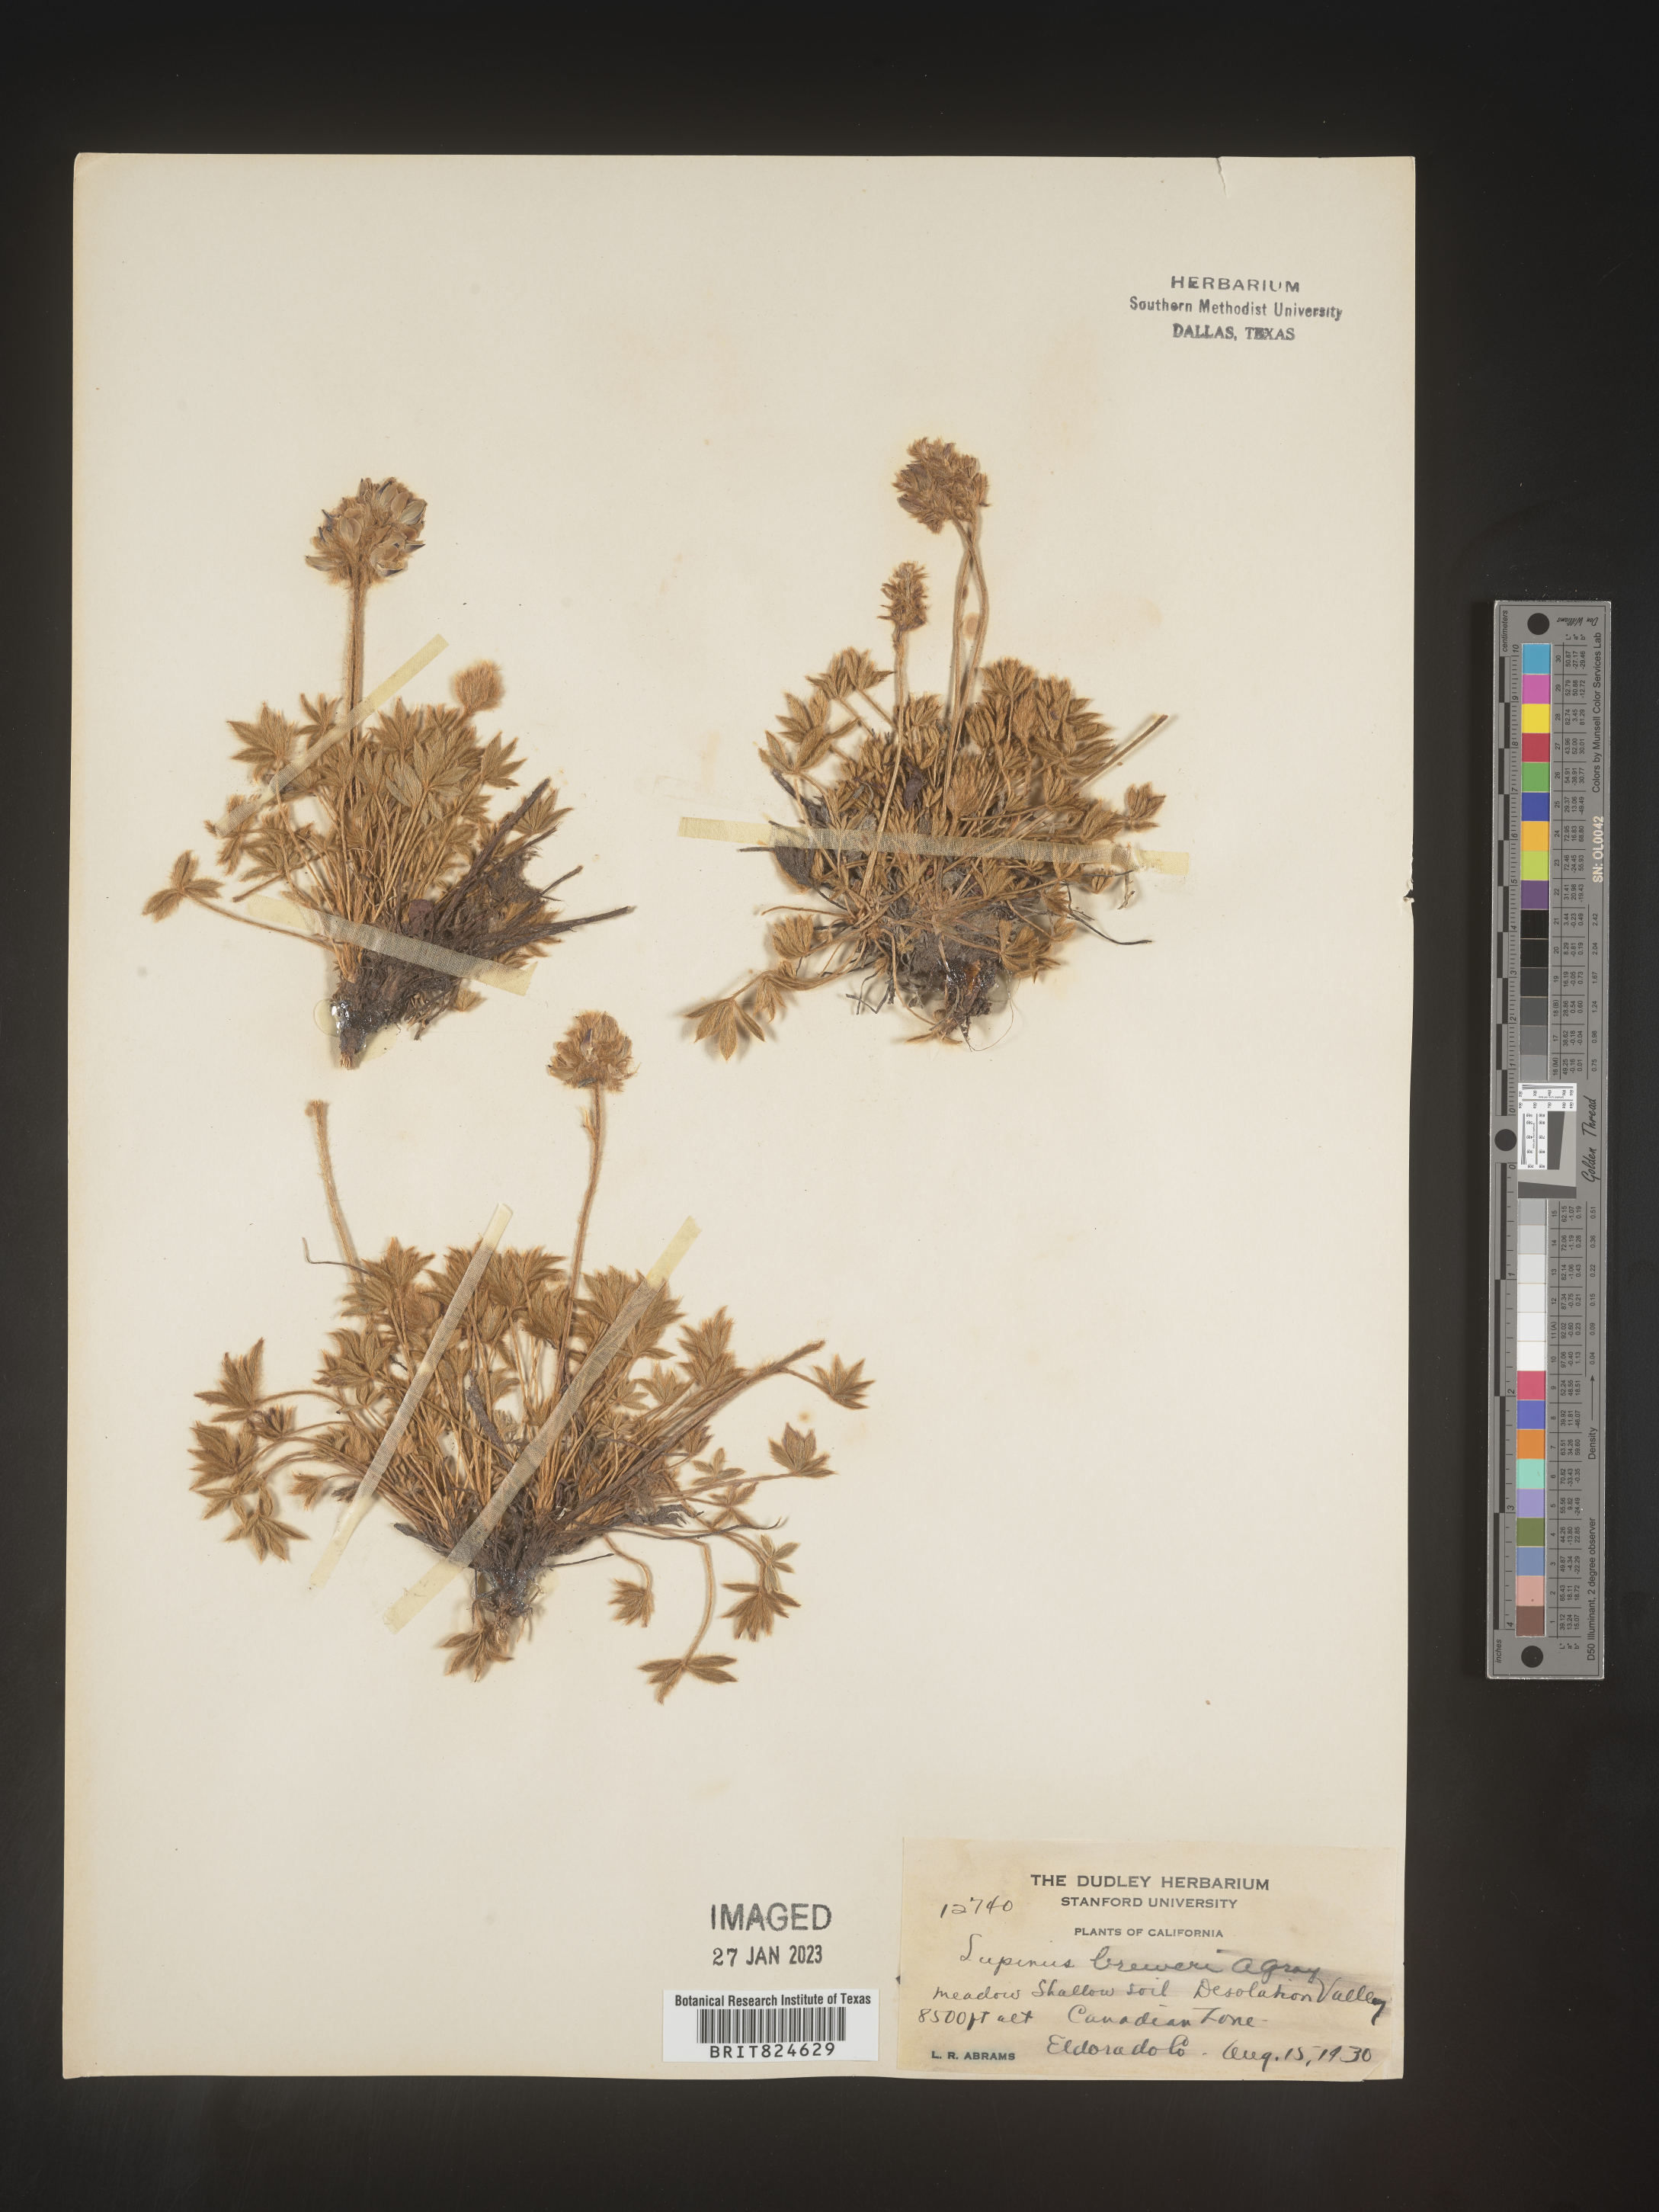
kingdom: Plantae
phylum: Tracheophyta
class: Magnoliopsida
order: Fabales
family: Fabaceae
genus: Lupinus
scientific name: Lupinus
